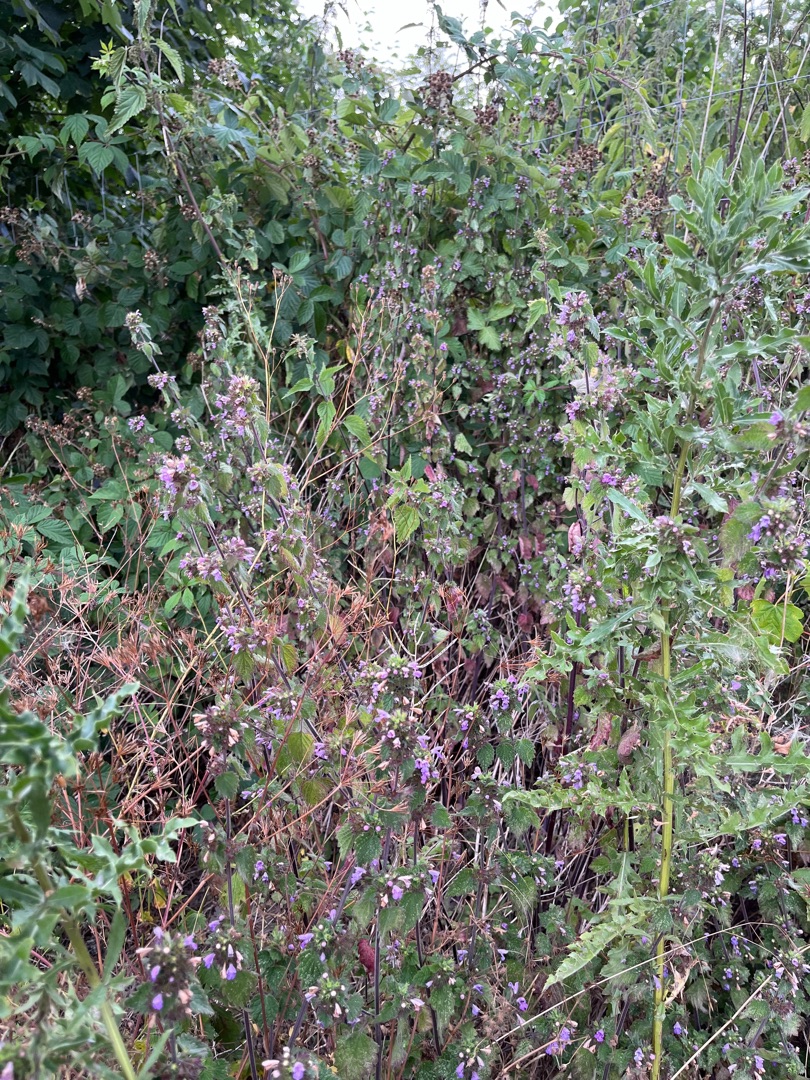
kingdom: Plantae
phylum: Tracheophyta
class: Magnoliopsida
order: Lamiales
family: Lamiaceae
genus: Ballota
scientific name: Ballota nigra
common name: Tandbæger
